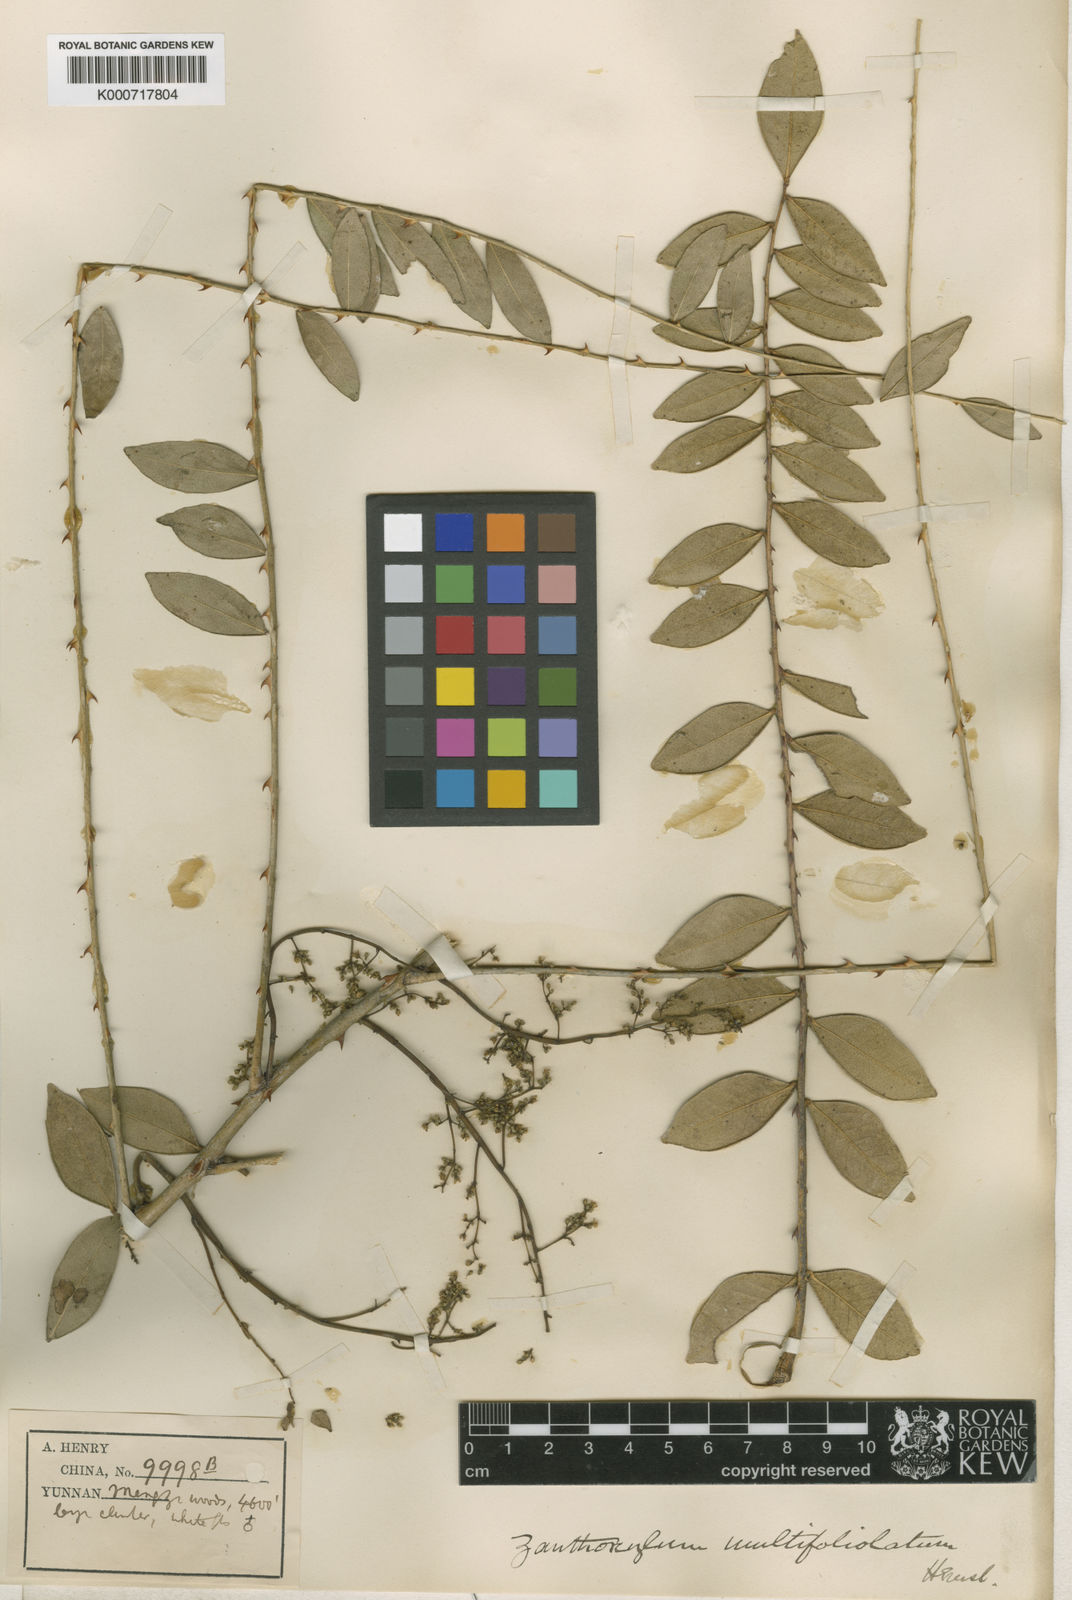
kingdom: Plantae
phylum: Tracheophyta
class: Magnoliopsida
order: Sapindales
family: Rutaceae
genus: Zanthoxylum
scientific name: Zanthoxylum multijugum
